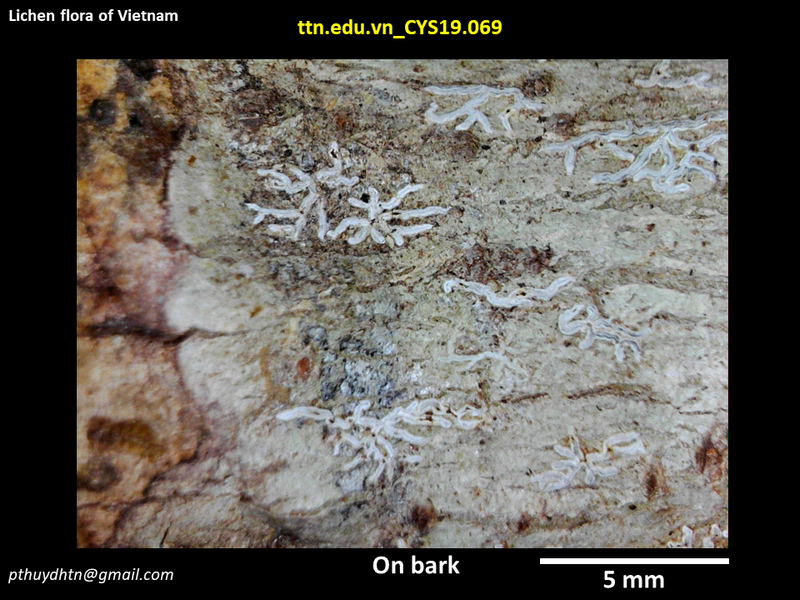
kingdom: Fungi
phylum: Ascomycota
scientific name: Ascomycota
